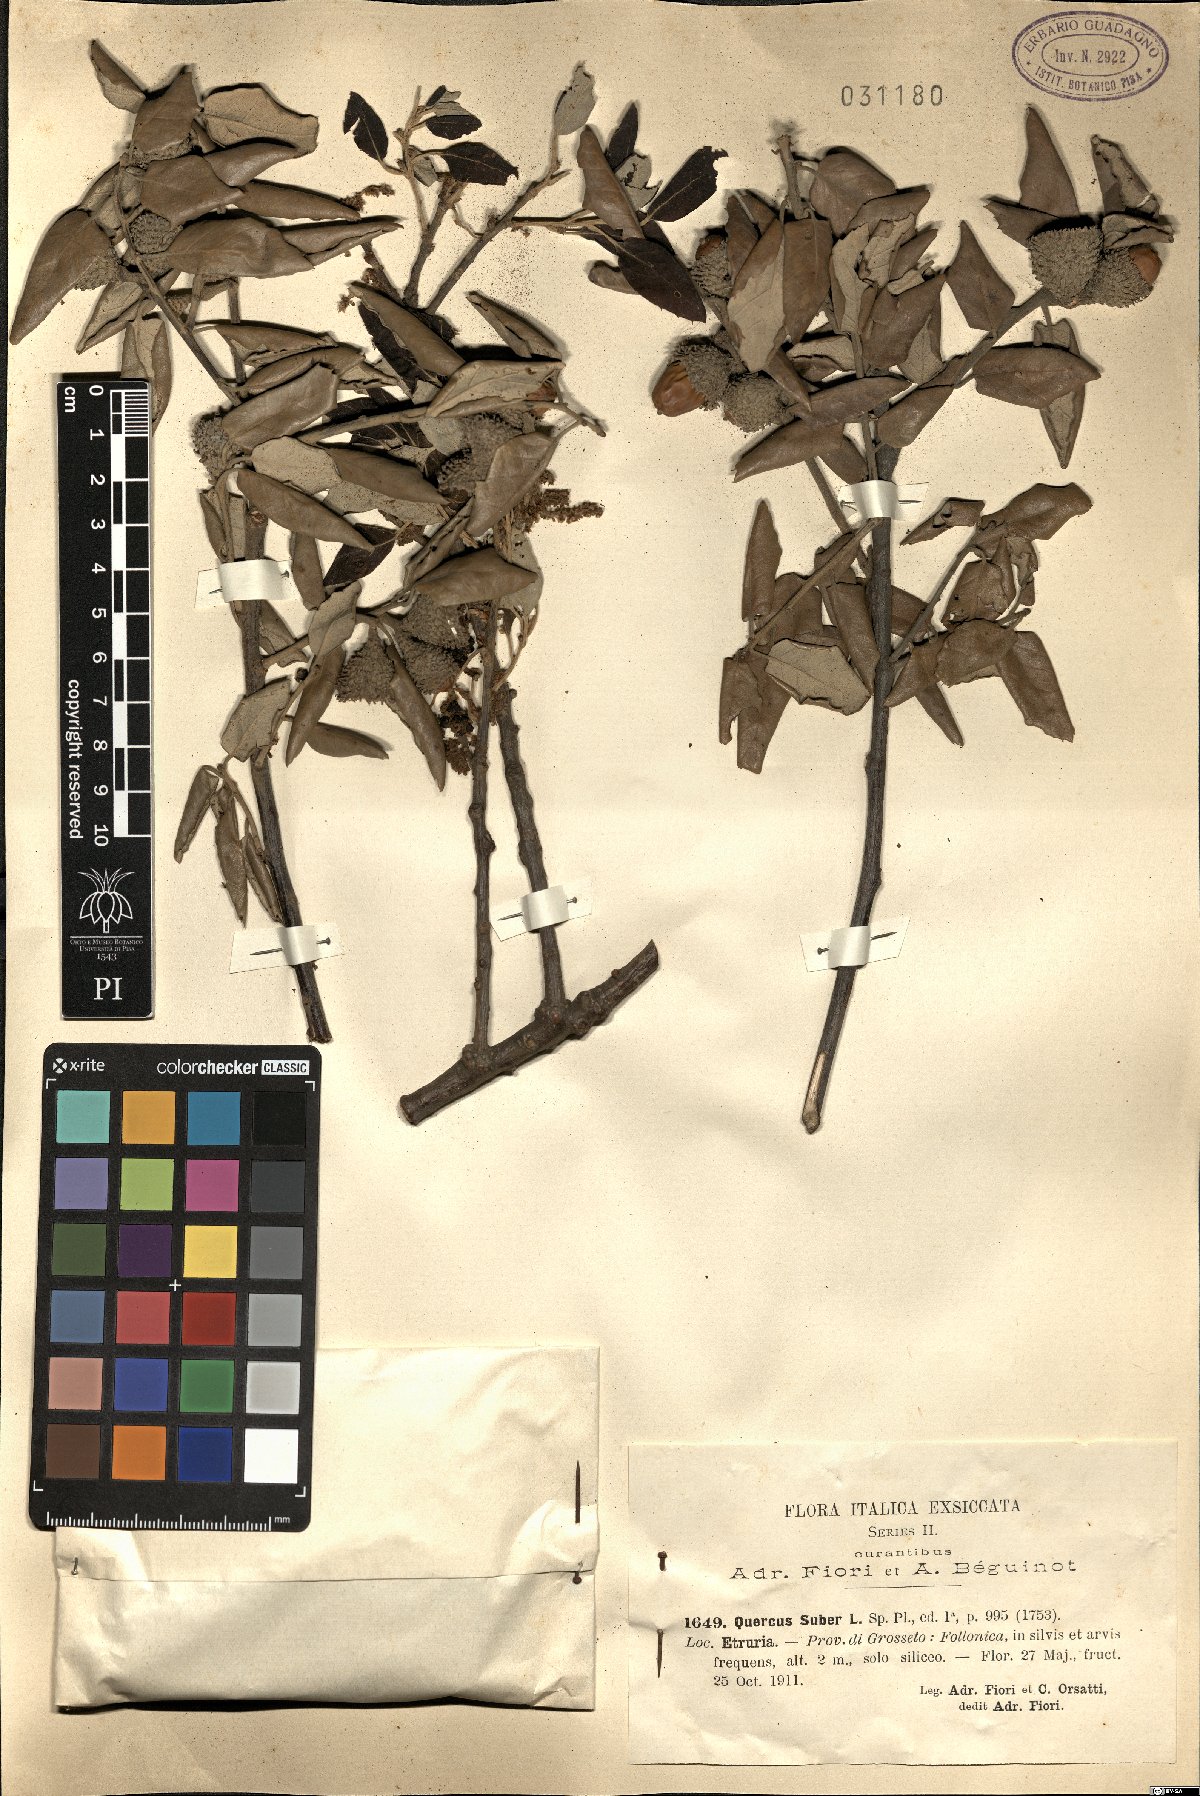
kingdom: Plantae
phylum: Tracheophyta
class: Magnoliopsida
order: Fagales
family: Fagaceae
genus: Quercus
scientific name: Quercus suber
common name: Cork oak
